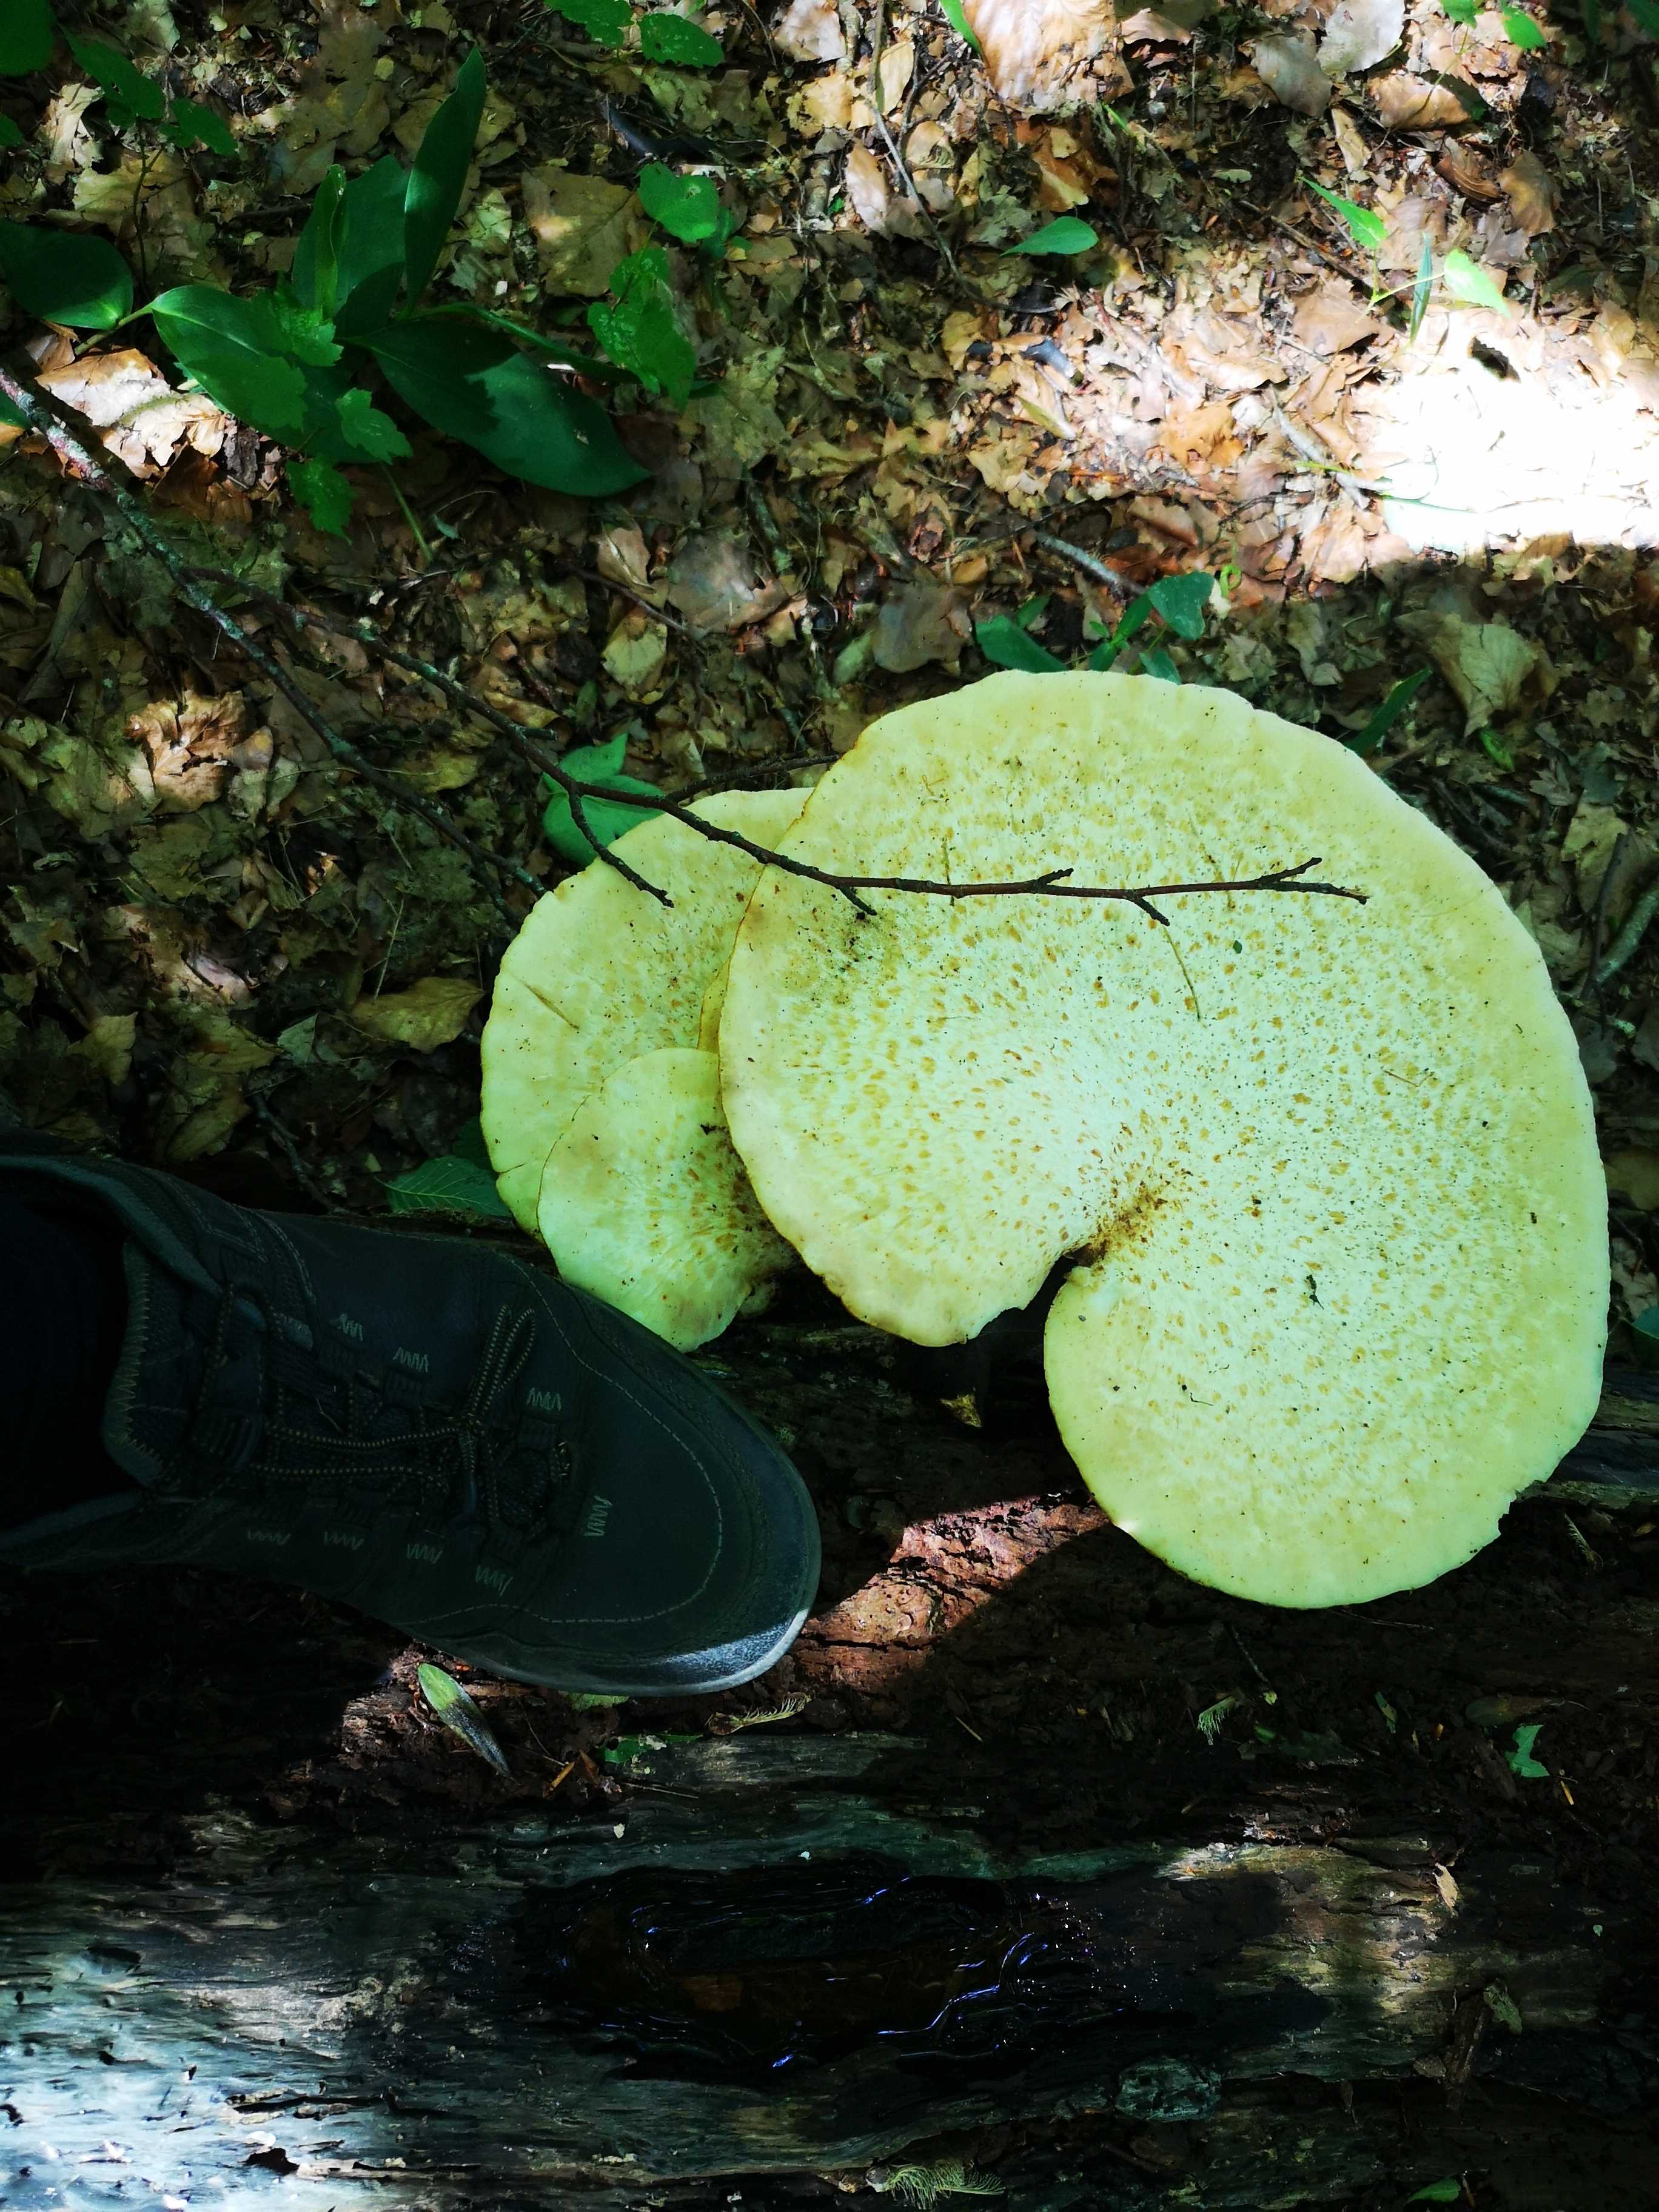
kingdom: Fungi
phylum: Basidiomycota
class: Agaricomycetes
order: Polyporales
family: Polyporaceae
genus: Cerioporus
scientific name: Cerioporus squamosus
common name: skællet stilkporesvamp
